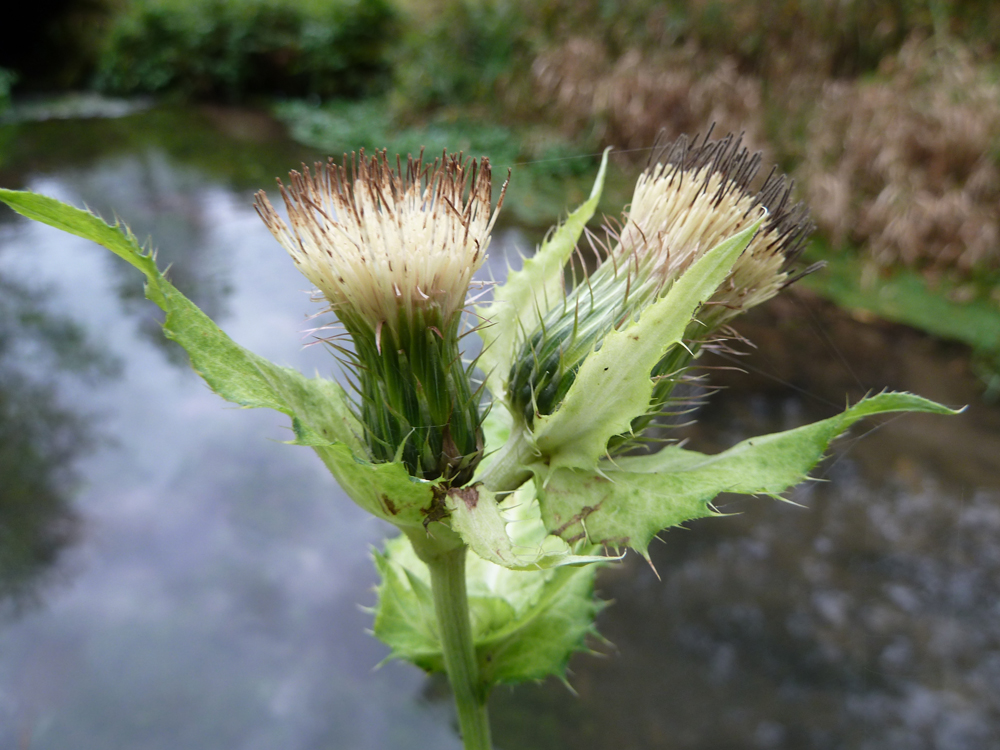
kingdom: Plantae
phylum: Tracheophyta
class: Magnoliopsida
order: Asterales
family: Asteraceae
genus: Cirsium
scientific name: Cirsium oleraceum
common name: Cabbage thistle
